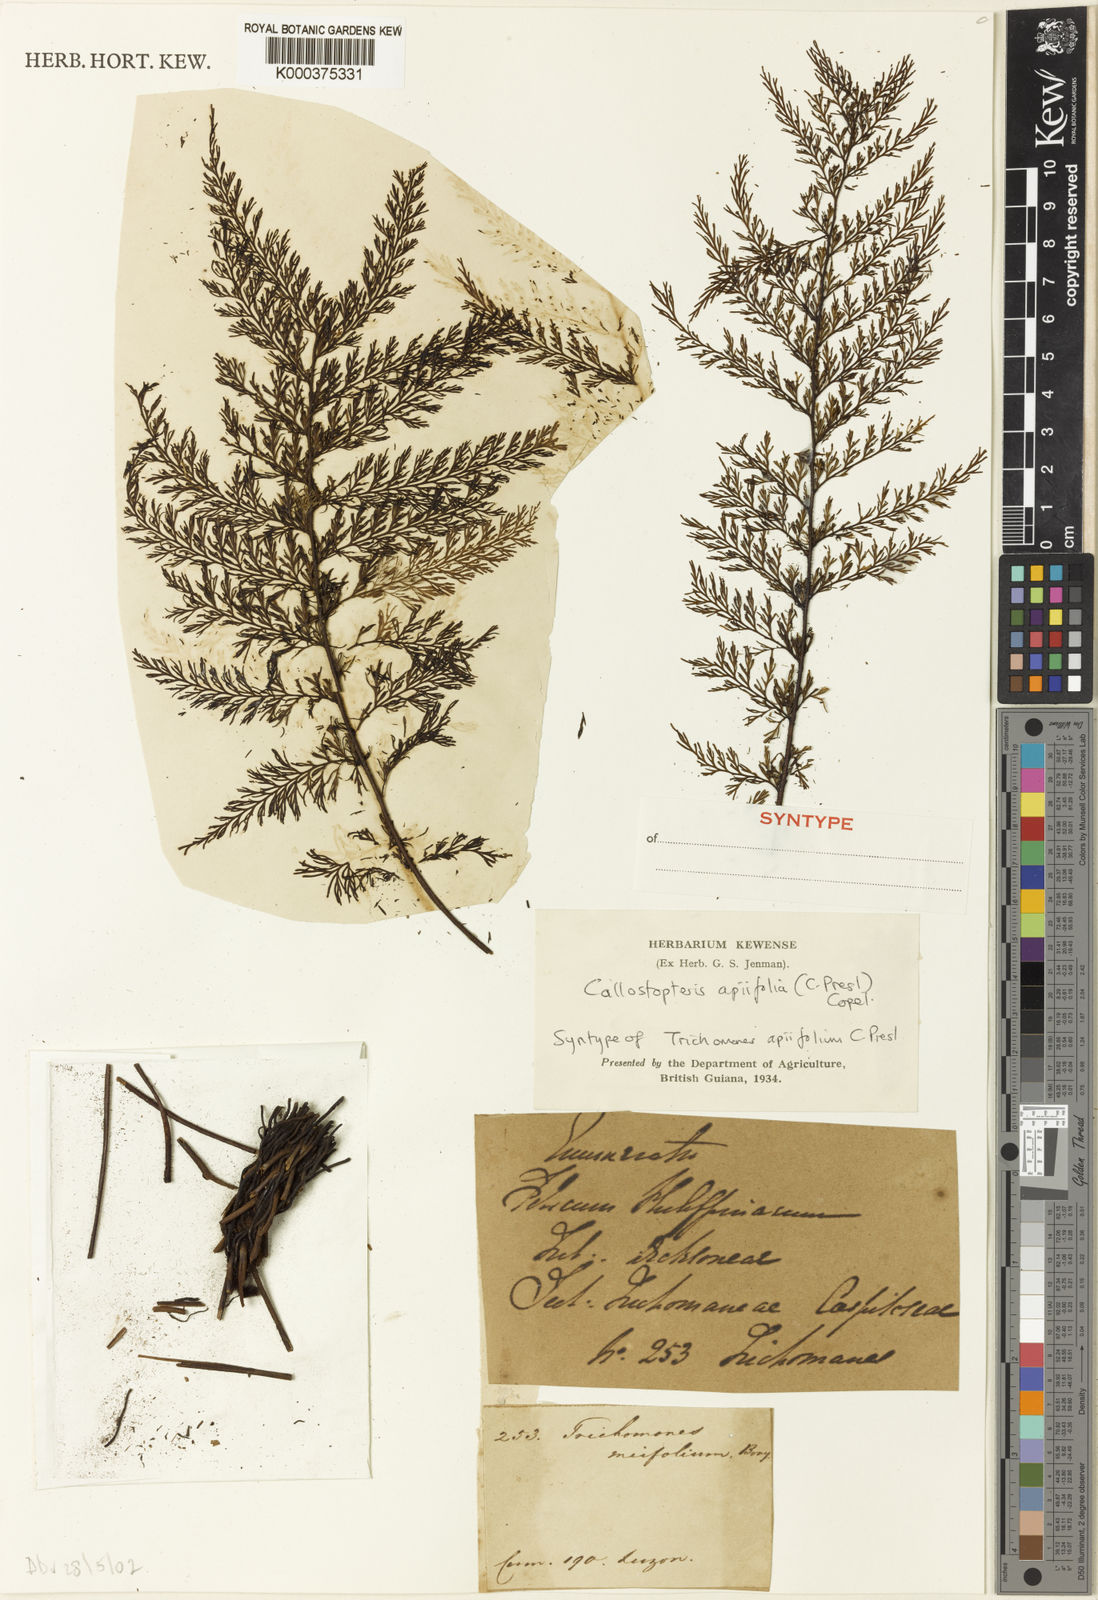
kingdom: Plantae
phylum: Tracheophyta
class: Polypodiopsida
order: Hymenophyllales
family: Hymenophyllaceae
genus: Callistopteris
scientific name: Callistopteris apiifolia
